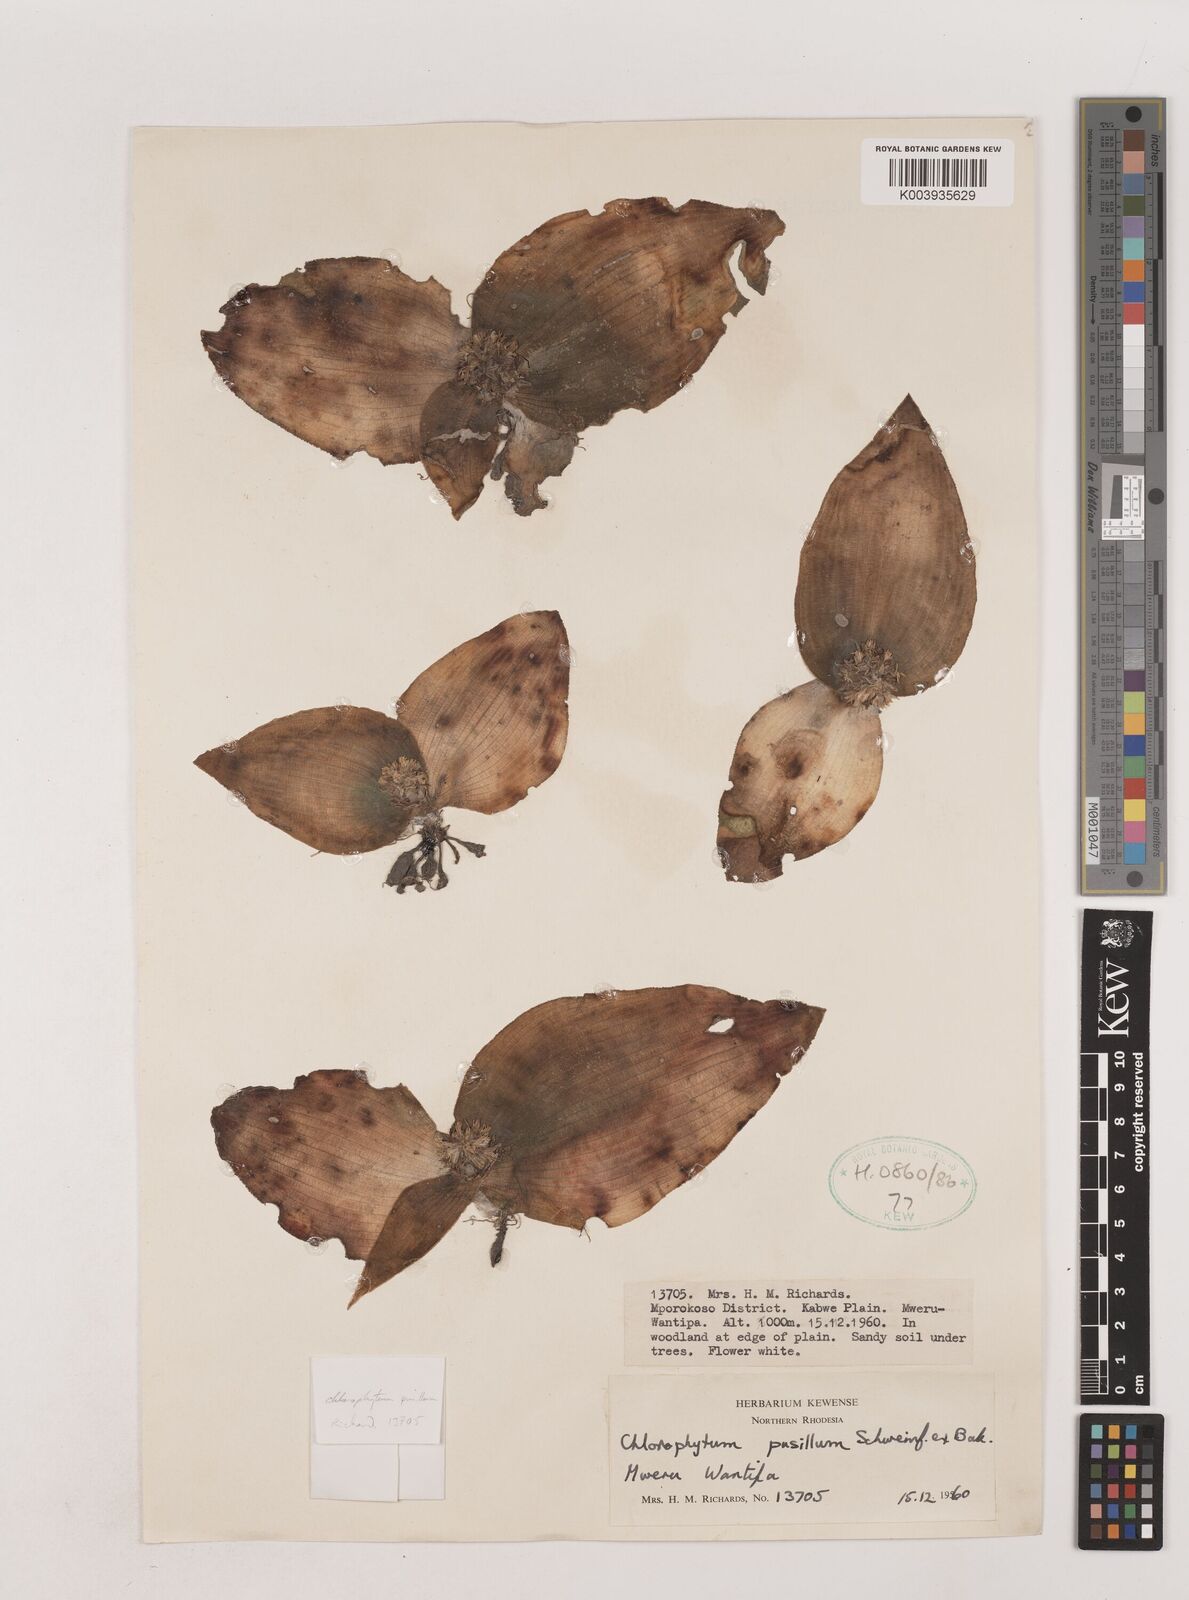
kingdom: Plantae
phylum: Tracheophyta
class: Liliopsida
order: Asparagales
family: Asparagaceae
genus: Chlorophytum
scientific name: Chlorophytum pusillum
